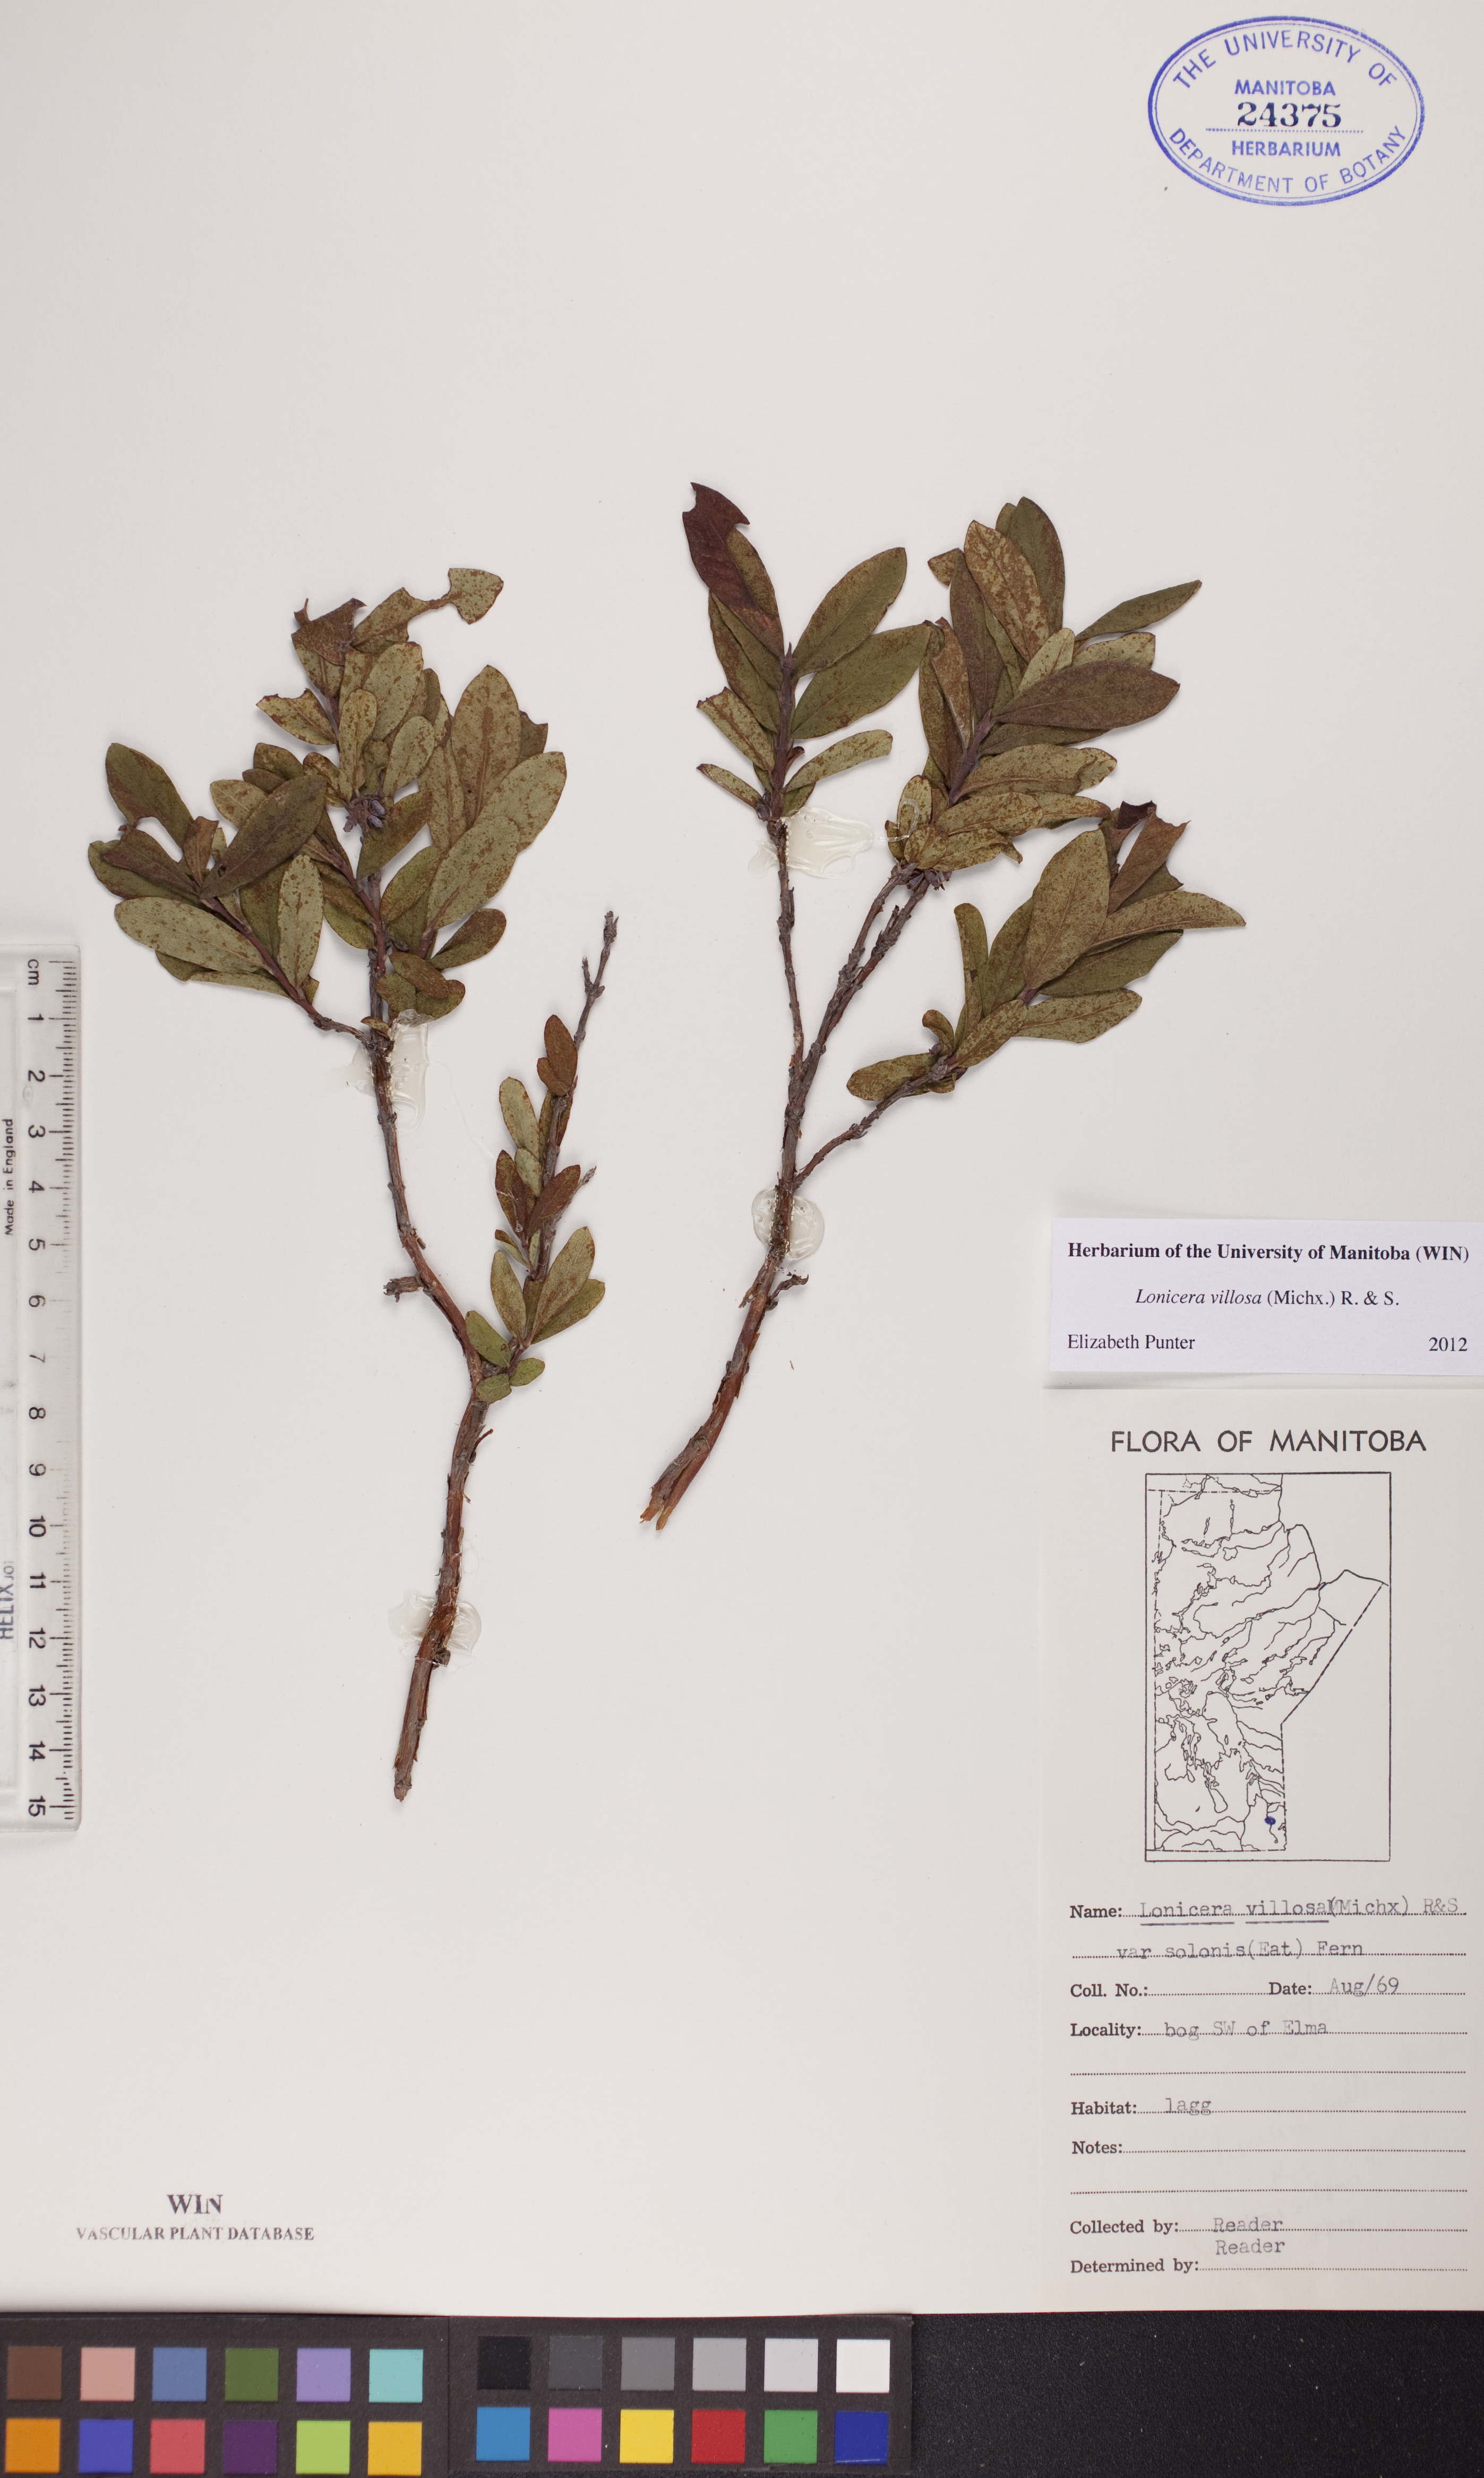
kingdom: Plantae
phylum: Tracheophyta
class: Magnoliopsida
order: Dipsacales
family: Caprifoliaceae
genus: Lonicera
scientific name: Lonicera villosa
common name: Mountain fly-honeysuckle
